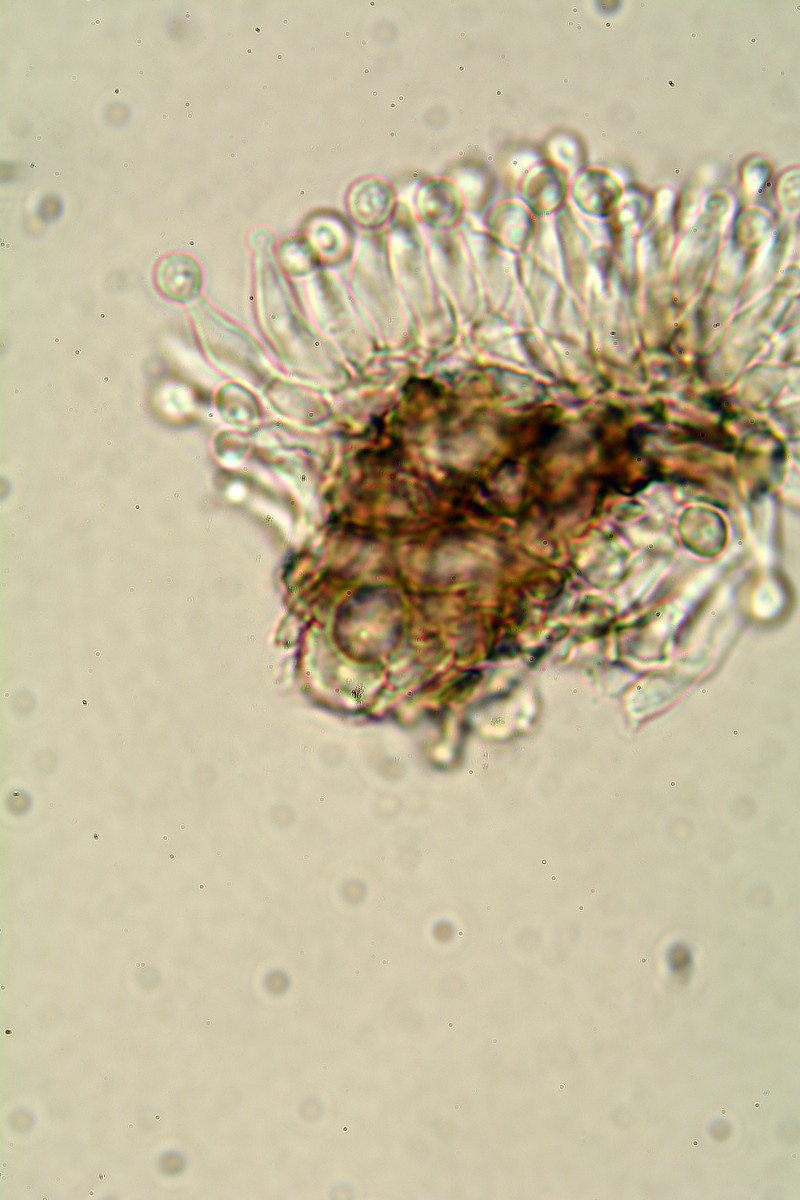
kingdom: Fungi
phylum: Ascomycota
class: Lecanoromycetes
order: Baeomycetales
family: Trapeliaceae
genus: Sarea
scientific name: Sarea
